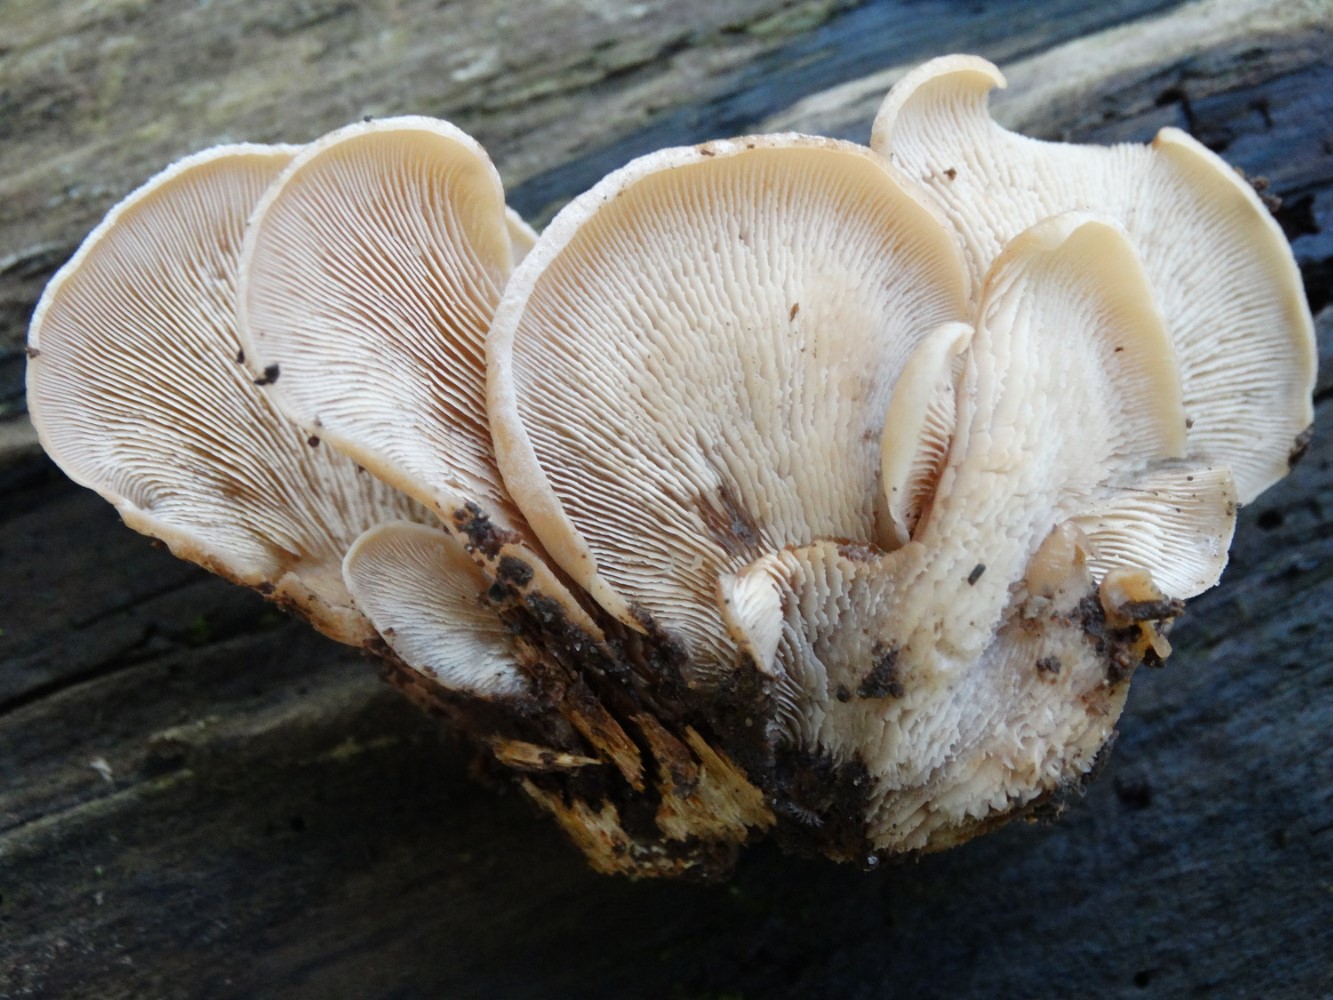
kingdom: Fungi
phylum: Basidiomycota
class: Agaricomycetes
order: Russulales
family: Auriscalpiaceae
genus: Lentinellus
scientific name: Lentinellus ursinus
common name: børstehåret savbladhat
